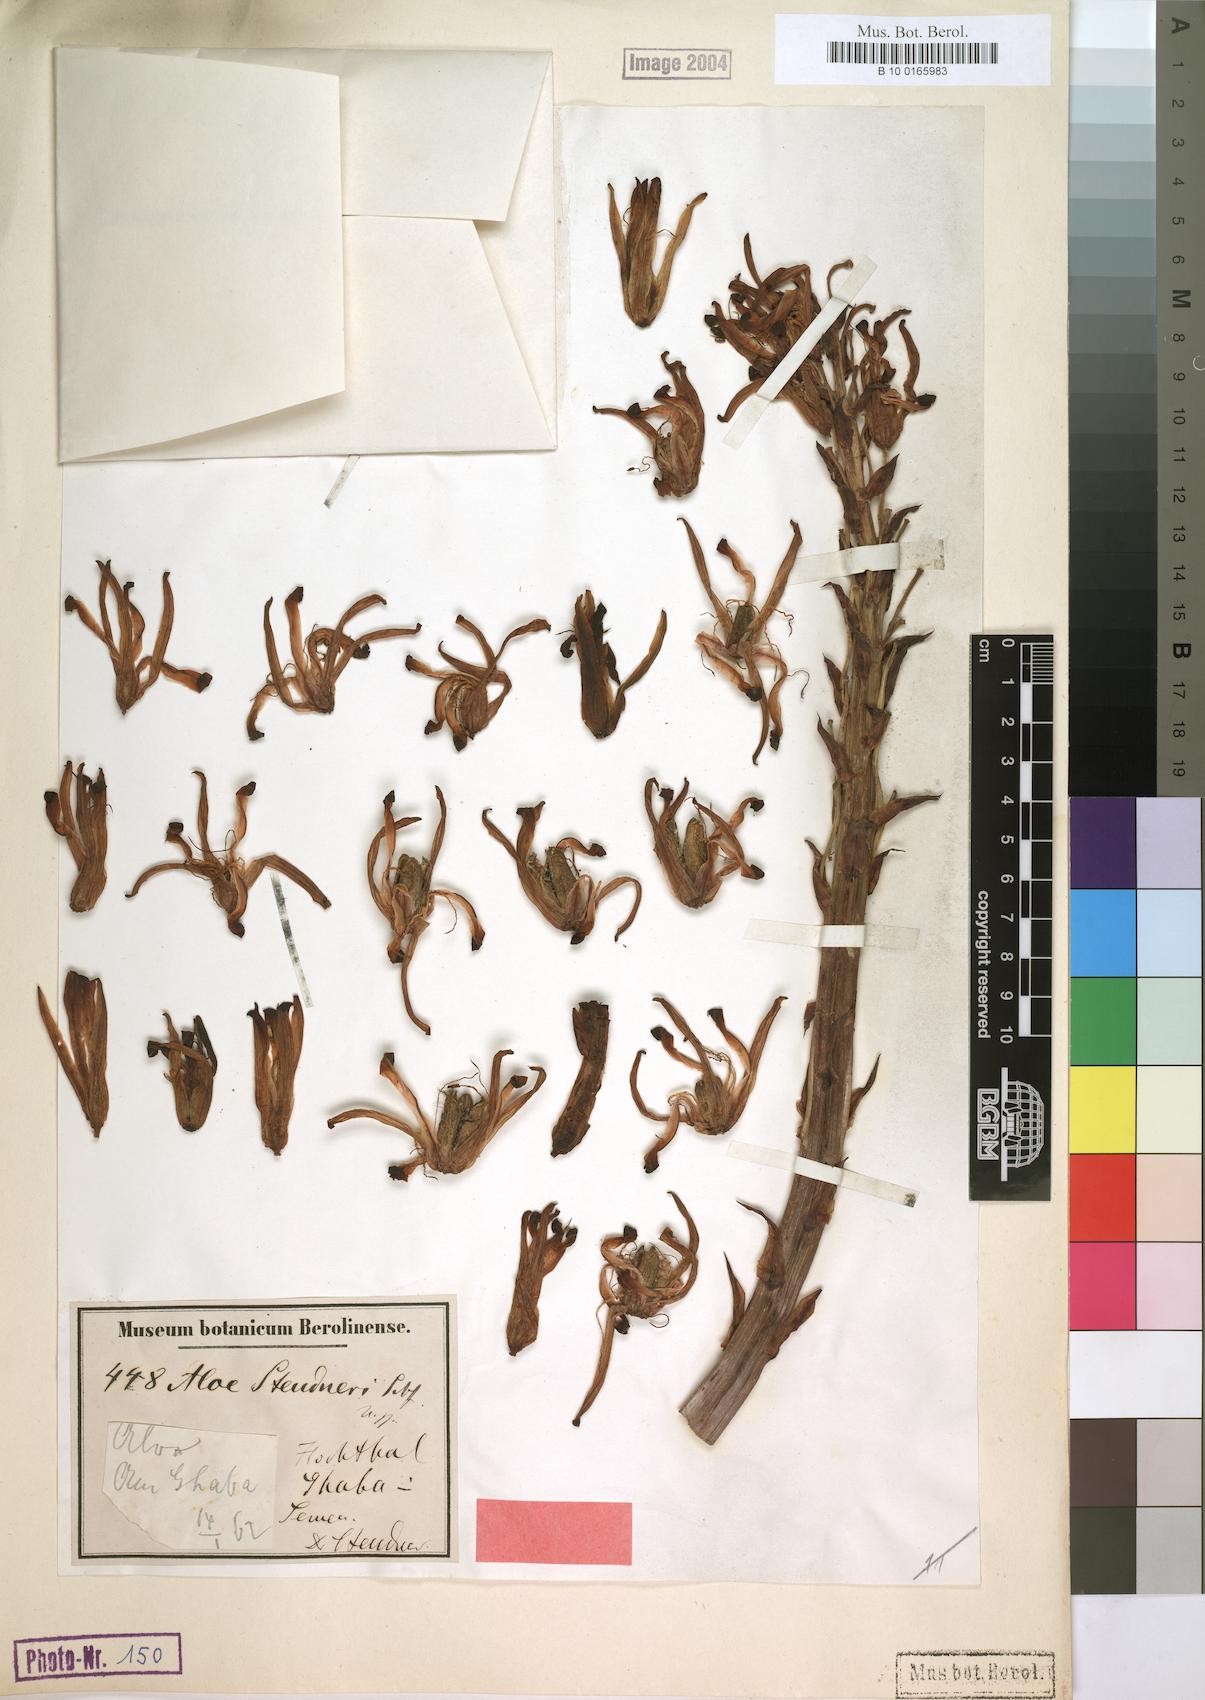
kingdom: Plantae
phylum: Tracheophyta
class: Liliopsida
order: Asparagales
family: Asphodelaceae
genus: Aloe
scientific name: Aloe steudneri
